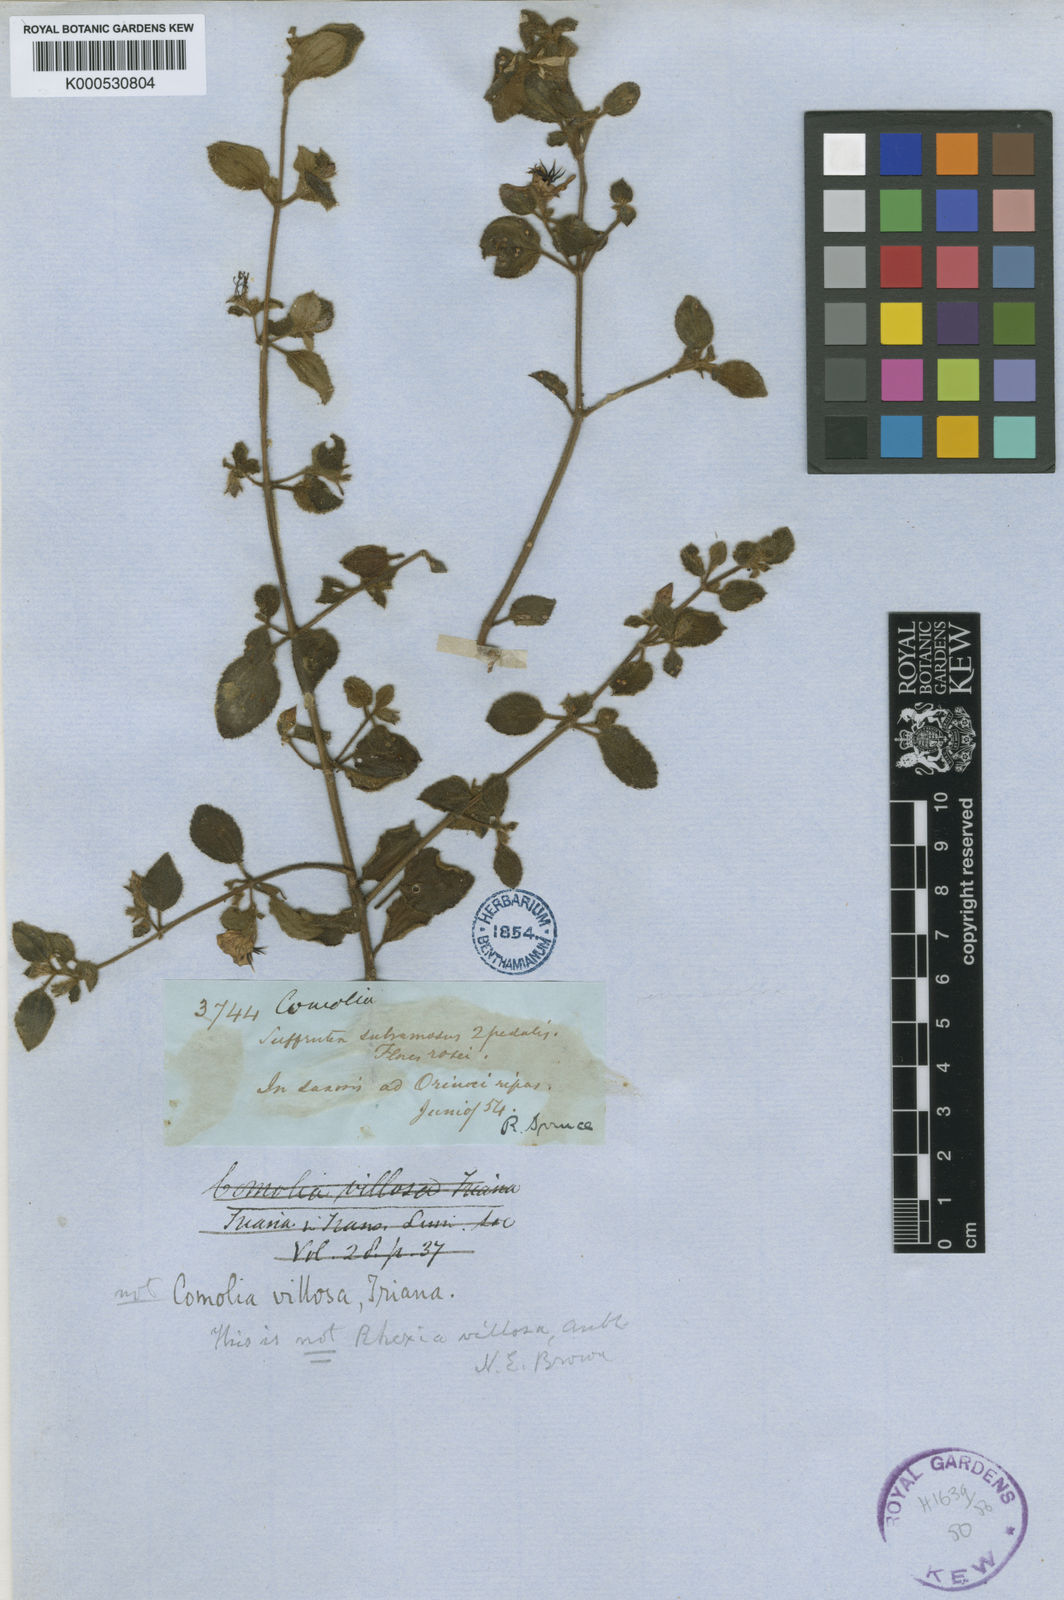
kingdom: Plantae
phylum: Tracheophyta
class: Magnoliopsida
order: Myrtales
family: Melastomataceae
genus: Comolia
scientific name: Comolia villosa
